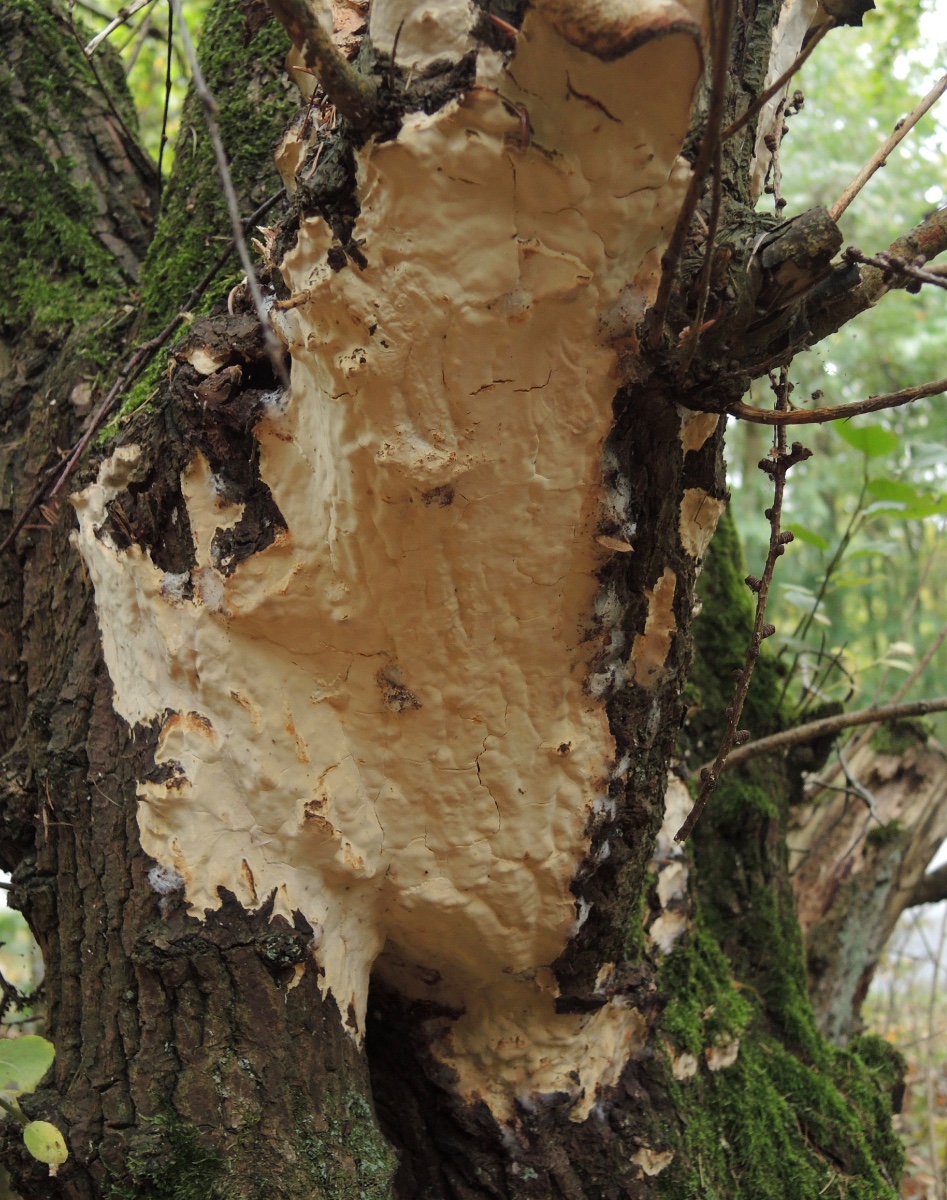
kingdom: Fungi
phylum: Basidiomycota
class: Agaricomycetes
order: Russulales
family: Peniophoraceae
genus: Scytinostroma
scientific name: Scytinostroma hemidichophyticum
